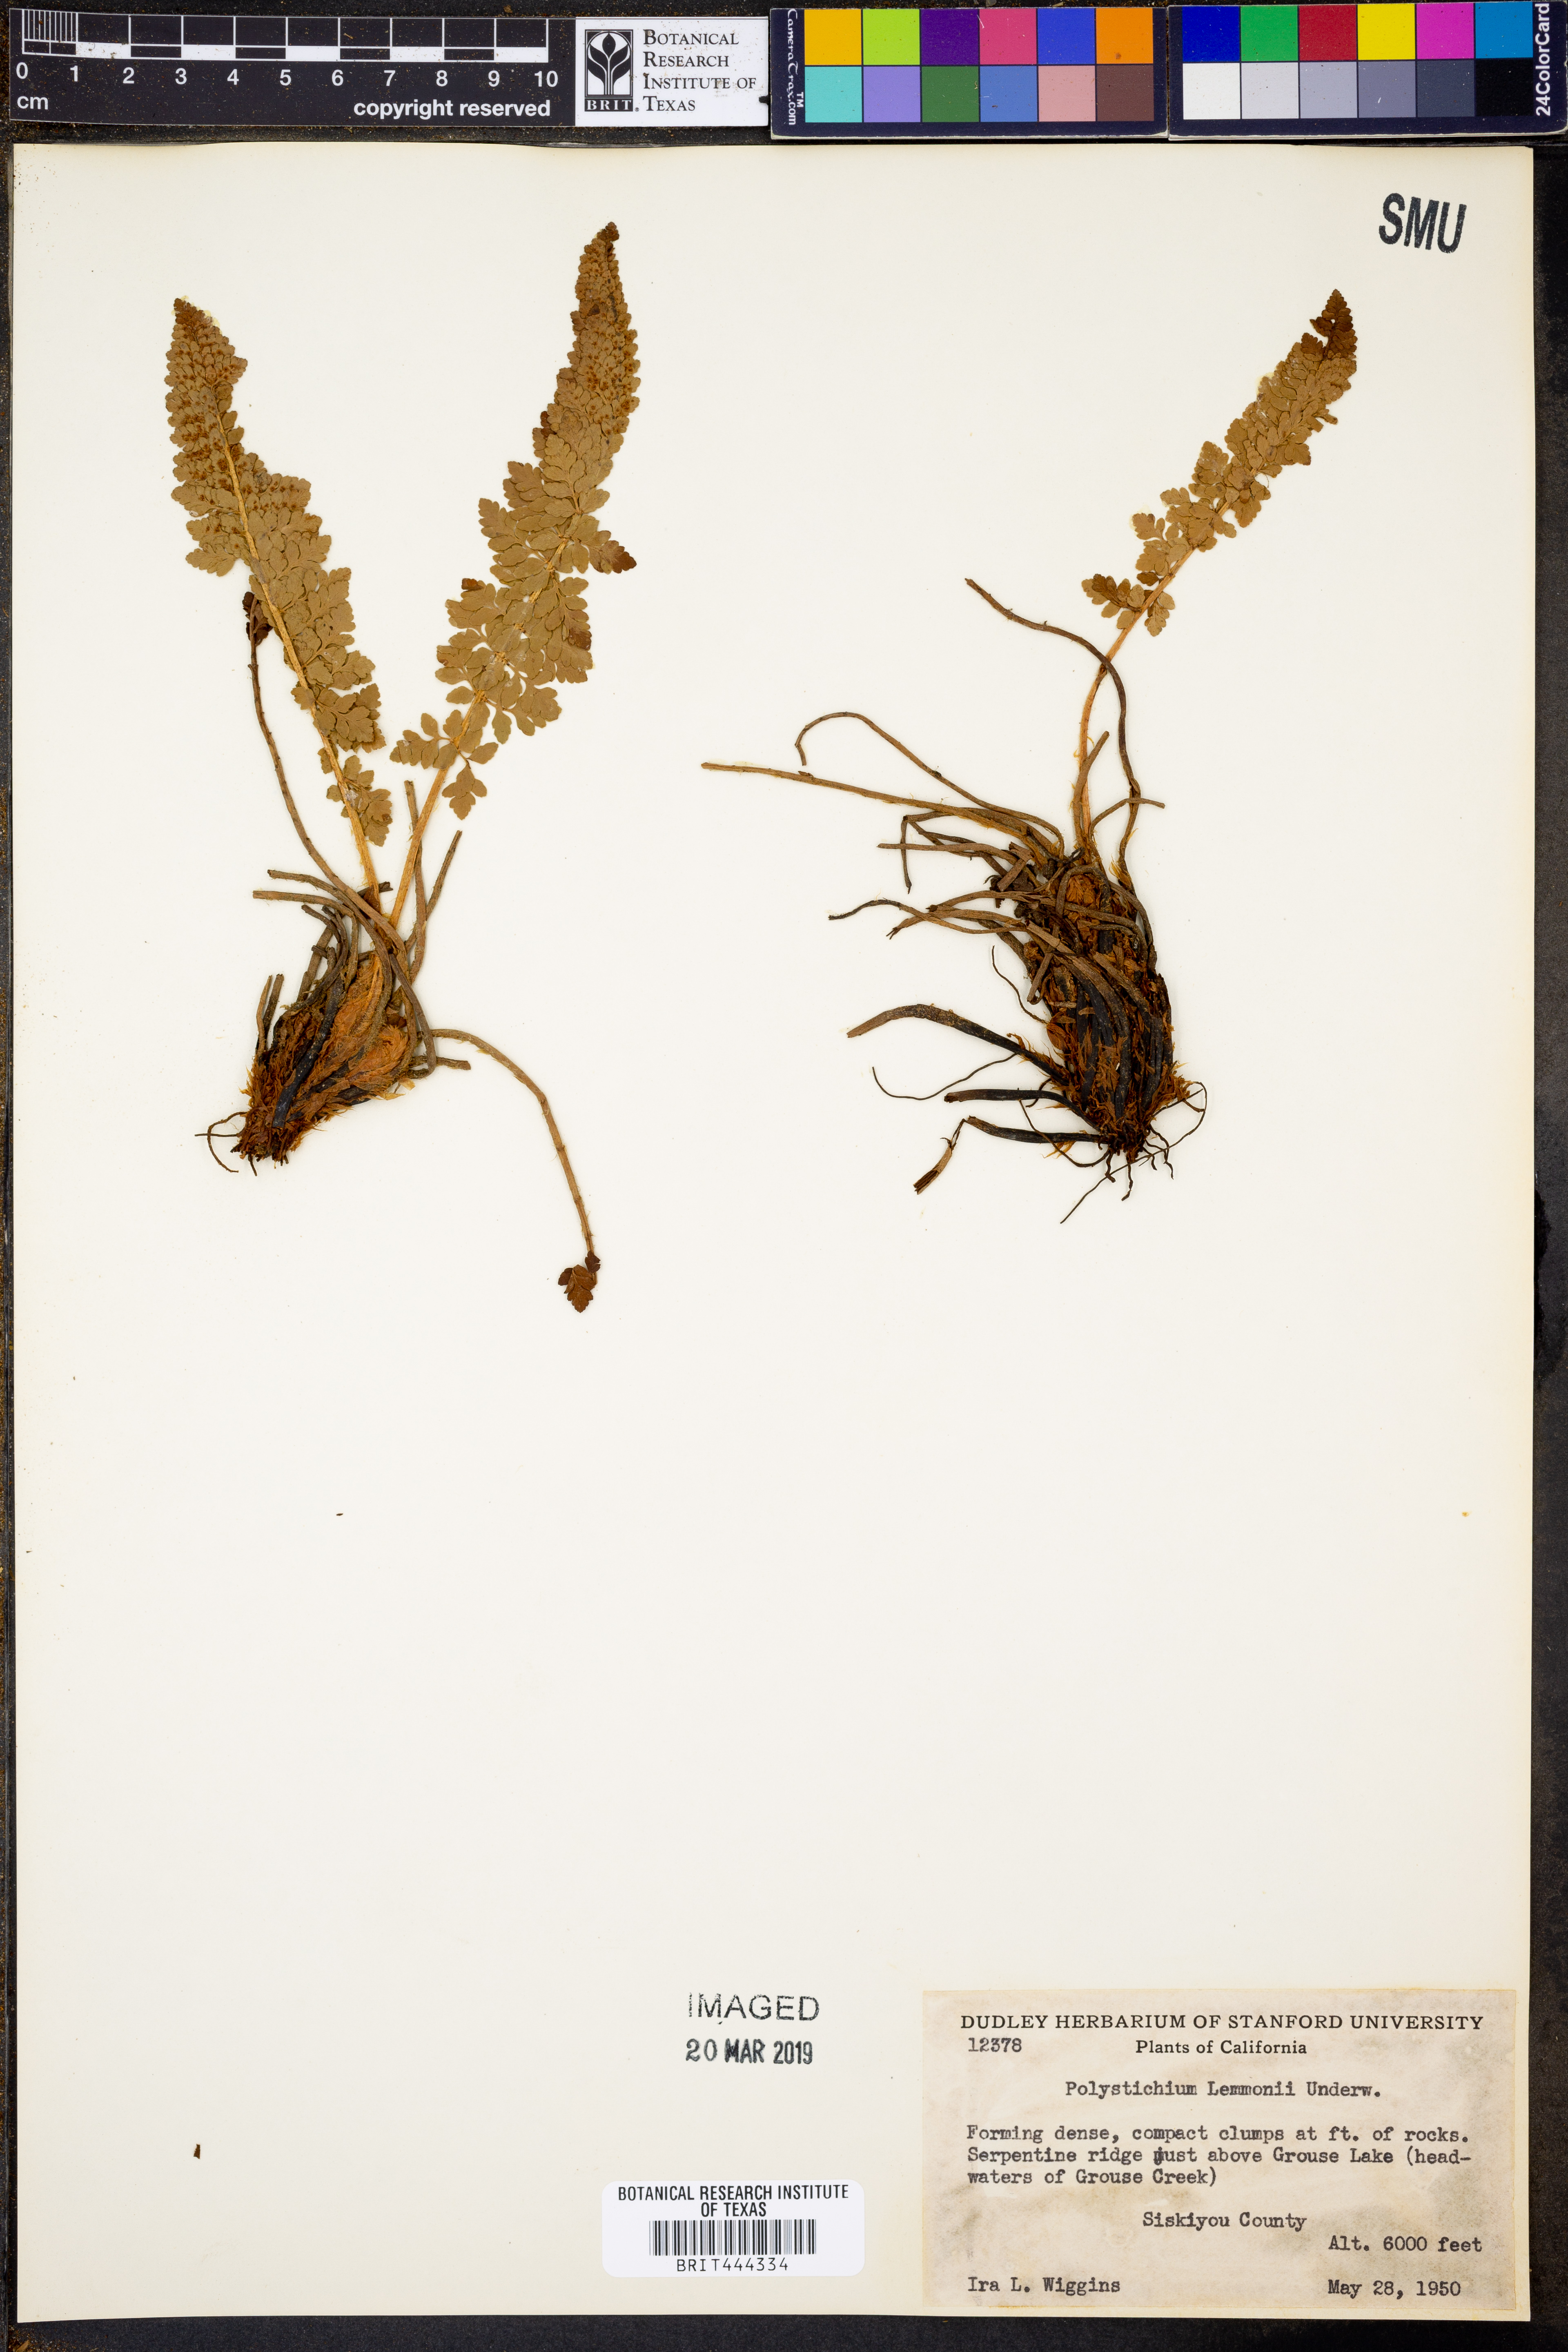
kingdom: Plantae
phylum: Tracheophyta
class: Polypodiopsida
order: Polypodiales
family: Dryopteridaceae
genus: Polystichum
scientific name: Polystichum lemmonii
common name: Lemmon's holly fern
